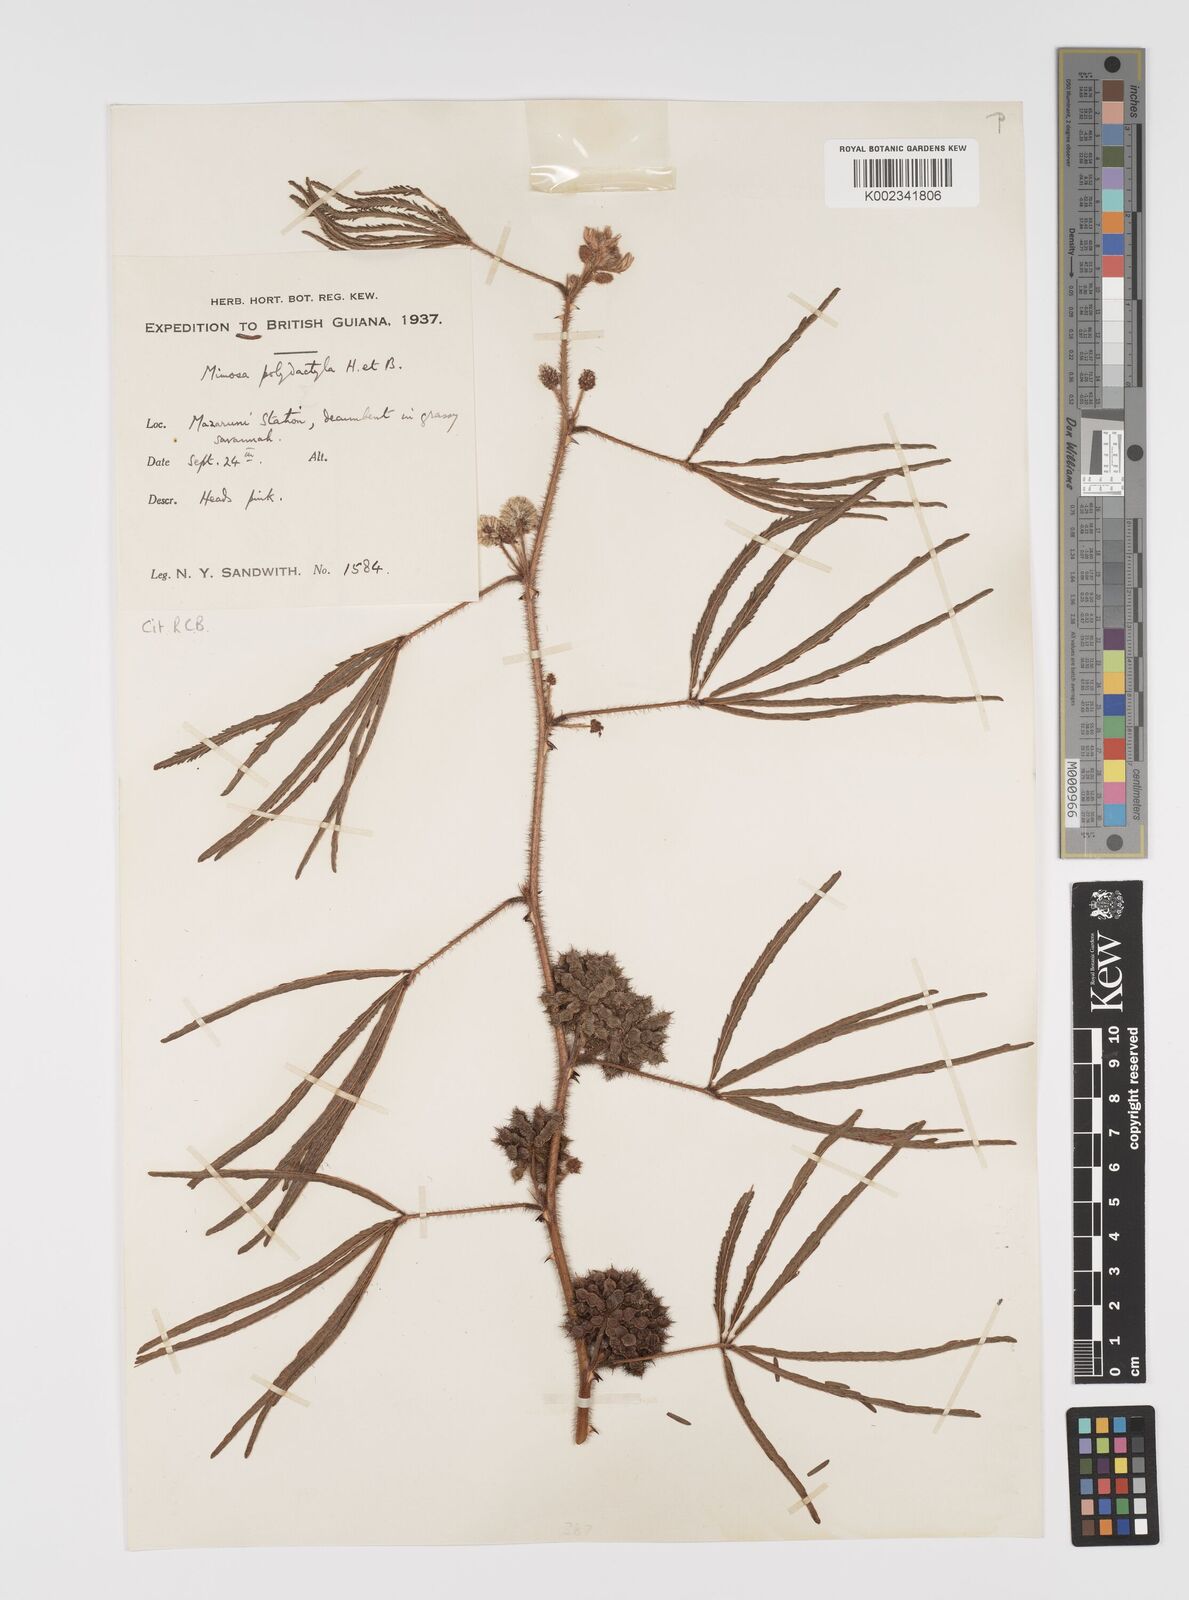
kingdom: Plantae
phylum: Tracheophyta
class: Magnoliopsida
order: Fabales
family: Fabaceae
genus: Mimosa
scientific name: Mimosa polydactyla
